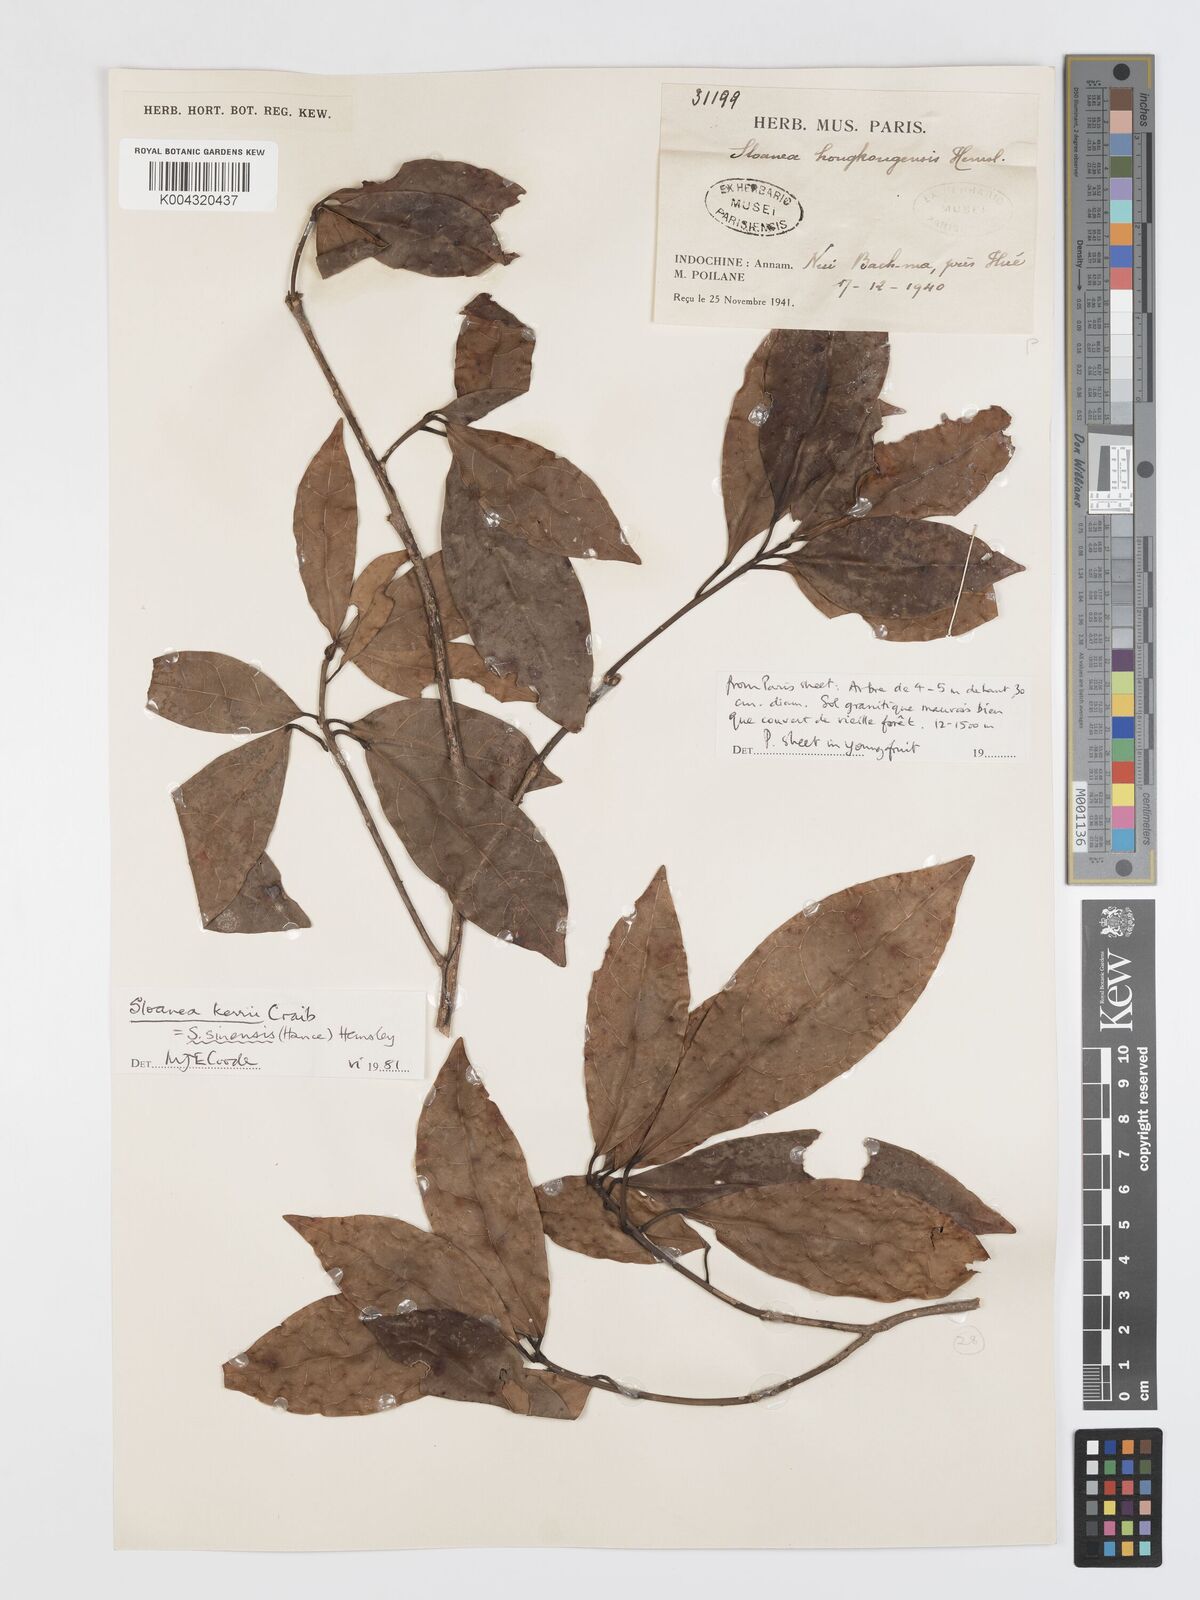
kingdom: Plantae
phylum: Tracheophyta
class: Magnoliopsida
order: Oxalidales
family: Elaeocarpaceae
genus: Sloanea
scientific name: Sloanea sinensis
